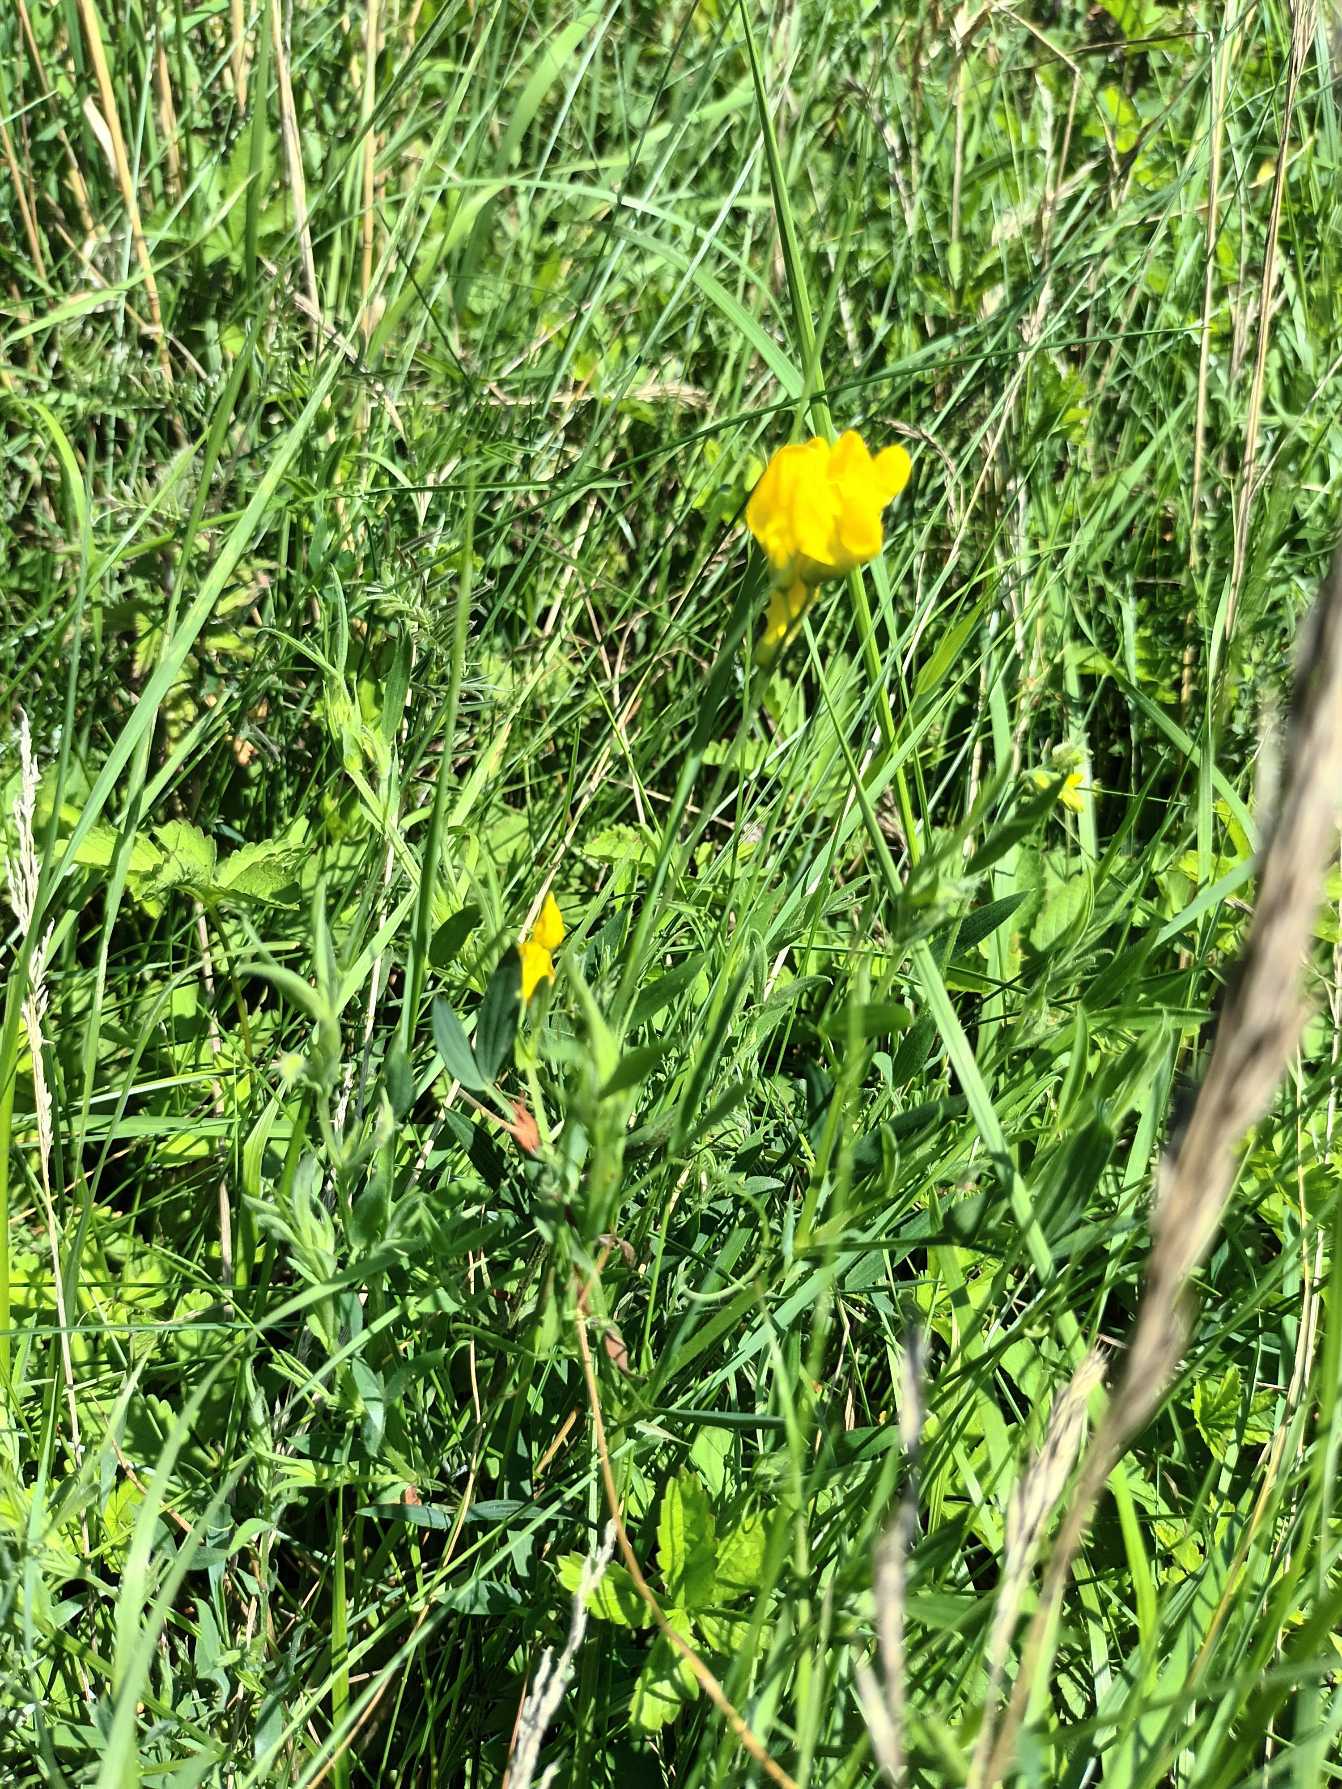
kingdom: Plantae
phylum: Tracheophyta
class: Magnoliopsida
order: Fabales
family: Fabaceae
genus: Lathyrus
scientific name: Lathyrus pratensis
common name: Gul fladbælg
